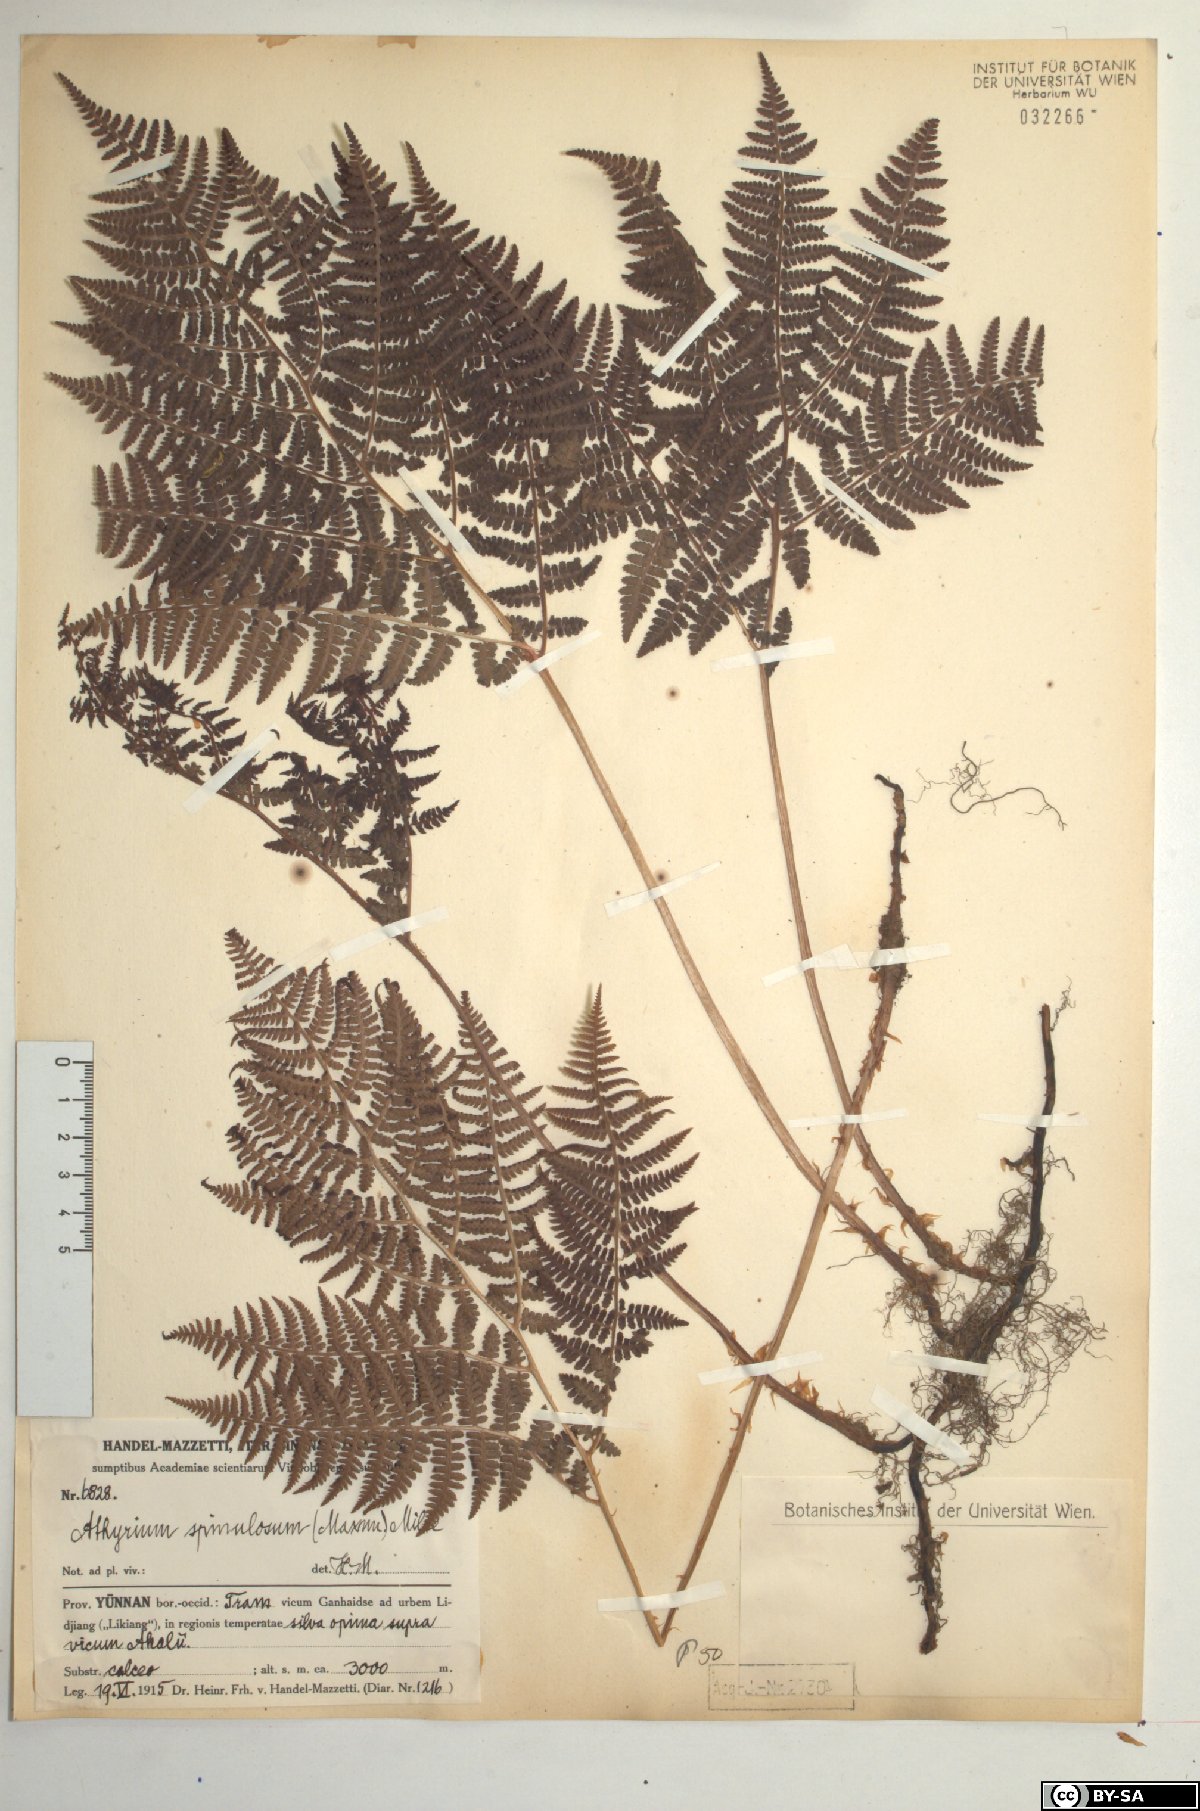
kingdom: Plantae
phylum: Tracheophyta
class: Polypodiopsida
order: Polypodiales
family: Athyriaceae
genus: Athyrium
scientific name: Athyrium spinulosum
